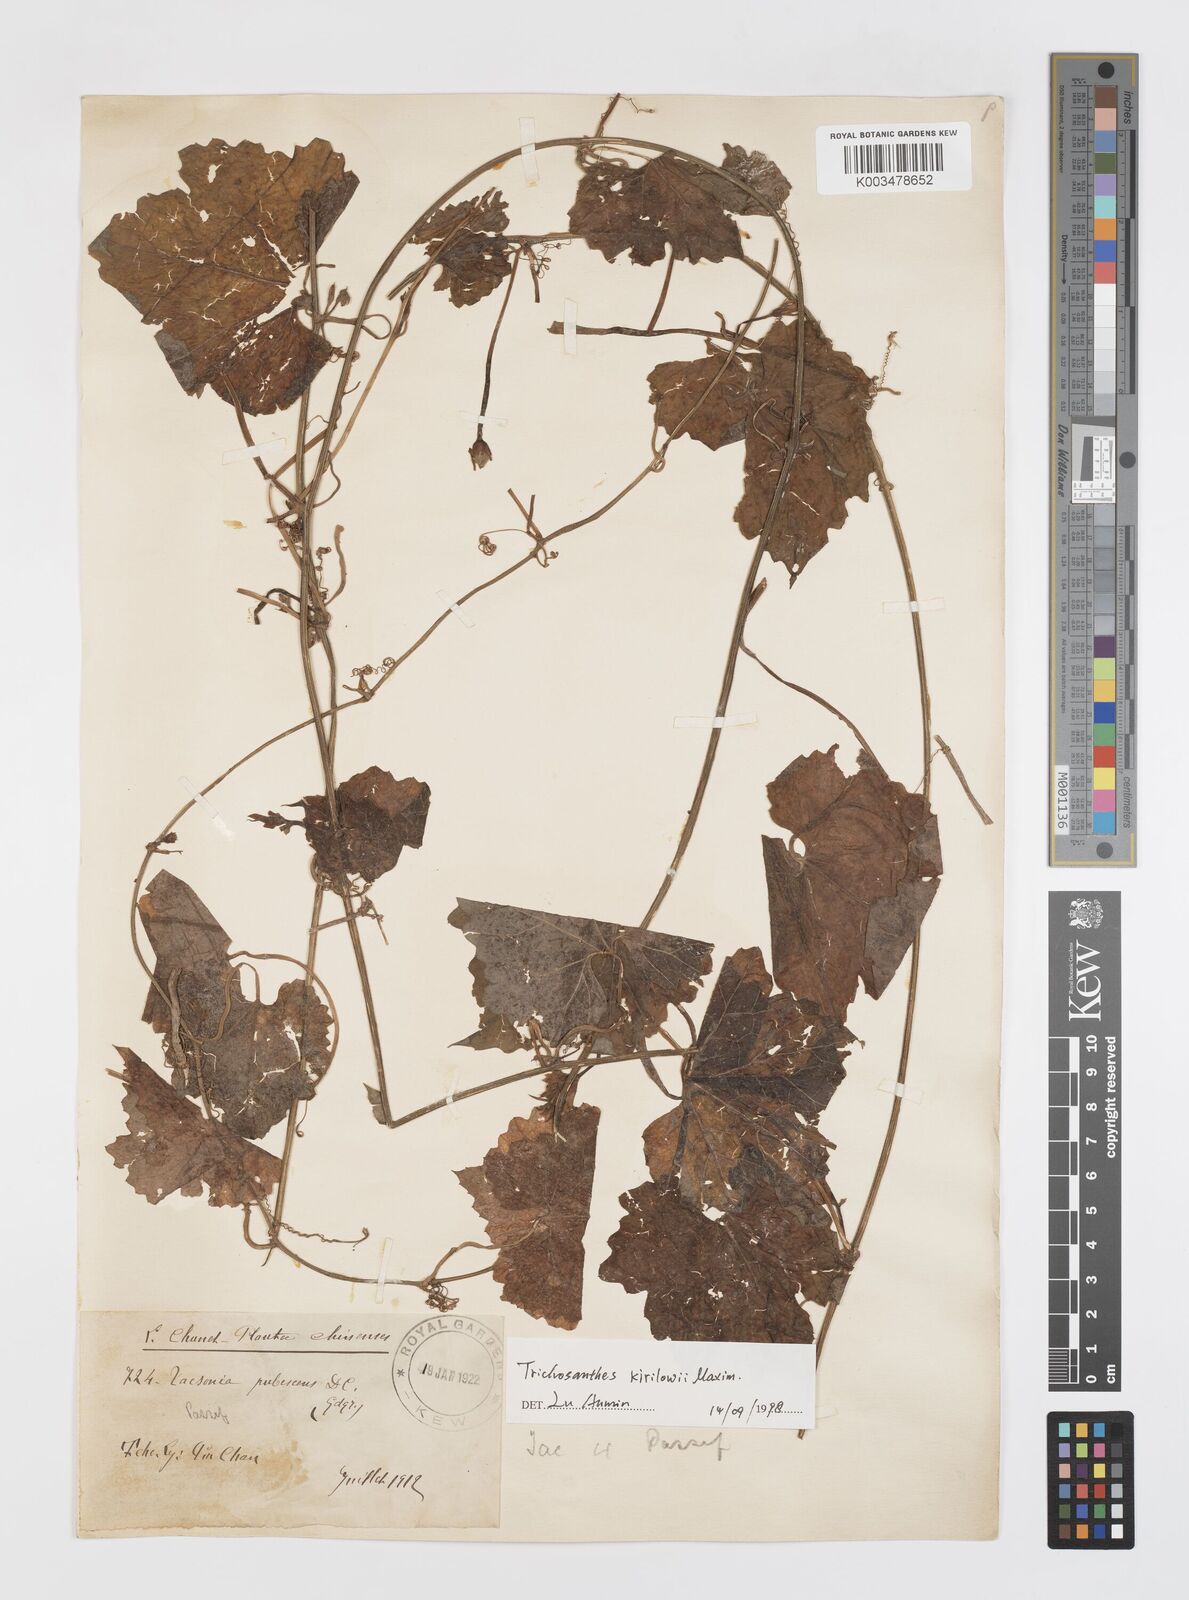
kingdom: Plantae
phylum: Tracheophyta
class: Magnoliopsida
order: Cucurbitales
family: Cucurbitaceae
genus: Trichosanthes
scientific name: Trichosanthes kirilowii
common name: Chinese-cucumber
